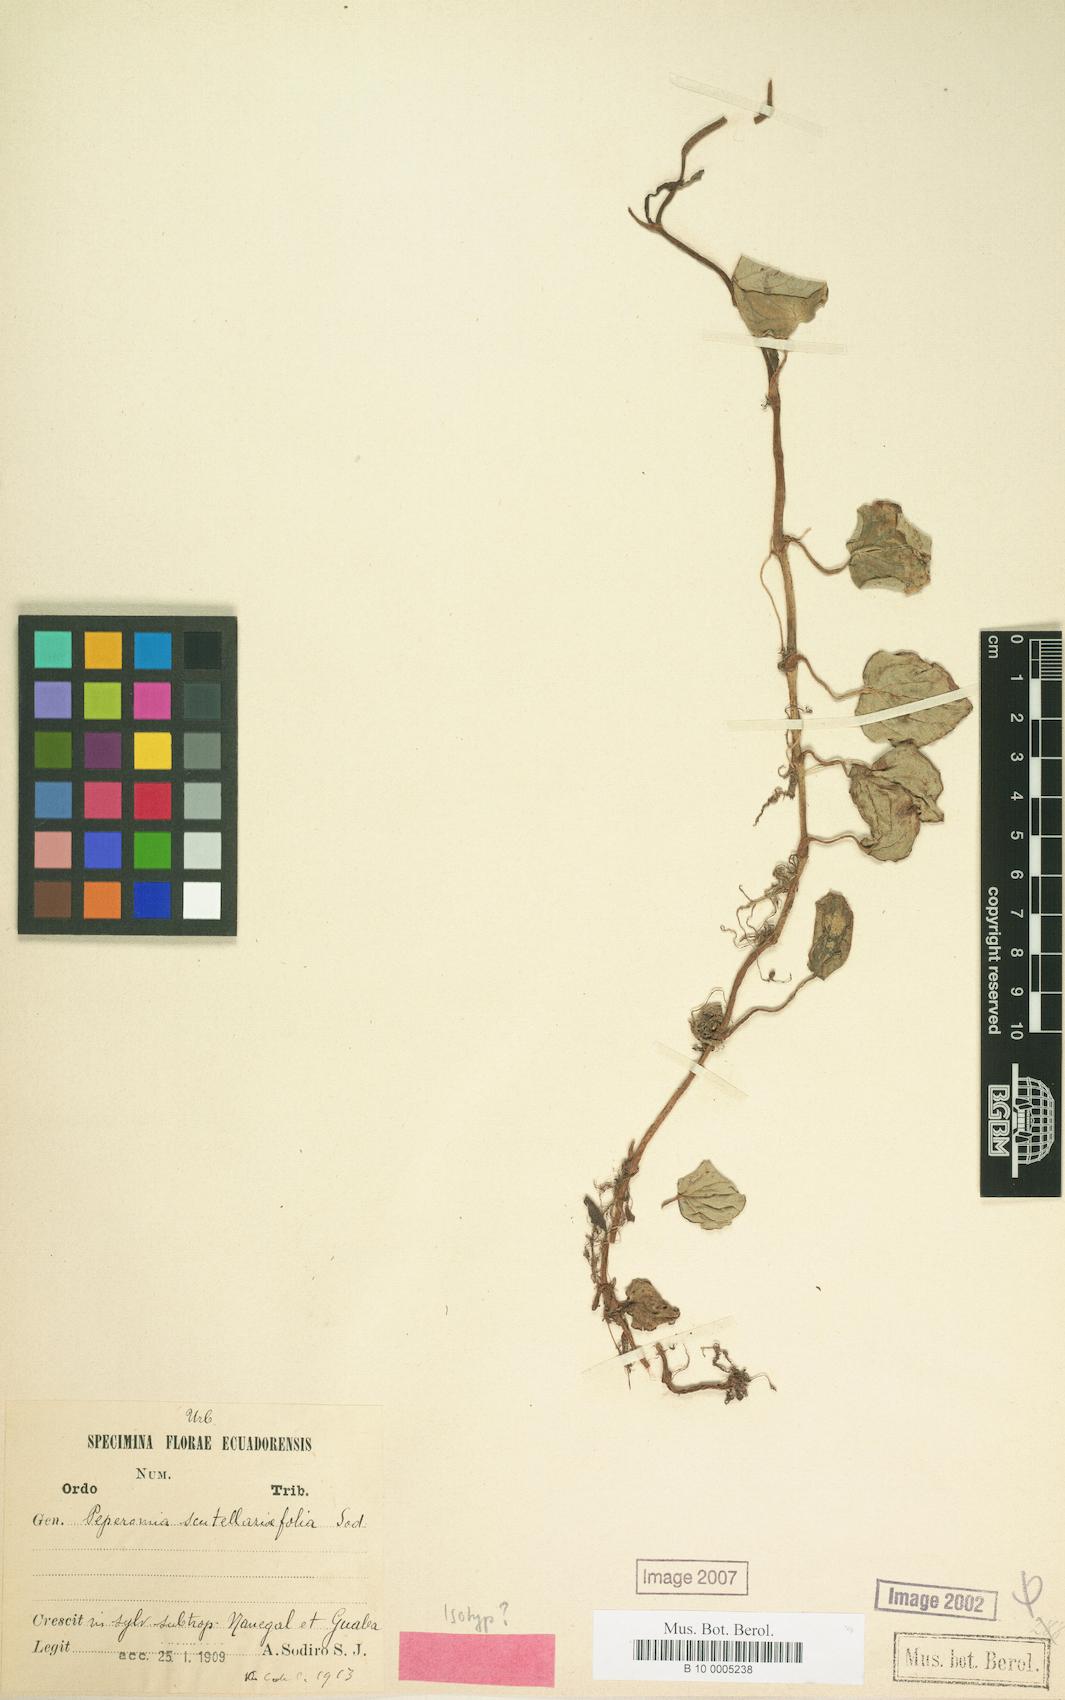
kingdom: Plantae
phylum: Tracheophyta
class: Magnoliopsida
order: Piperales
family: Piperaceae
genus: Peperomia
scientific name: Peperomia scutellariifolia
